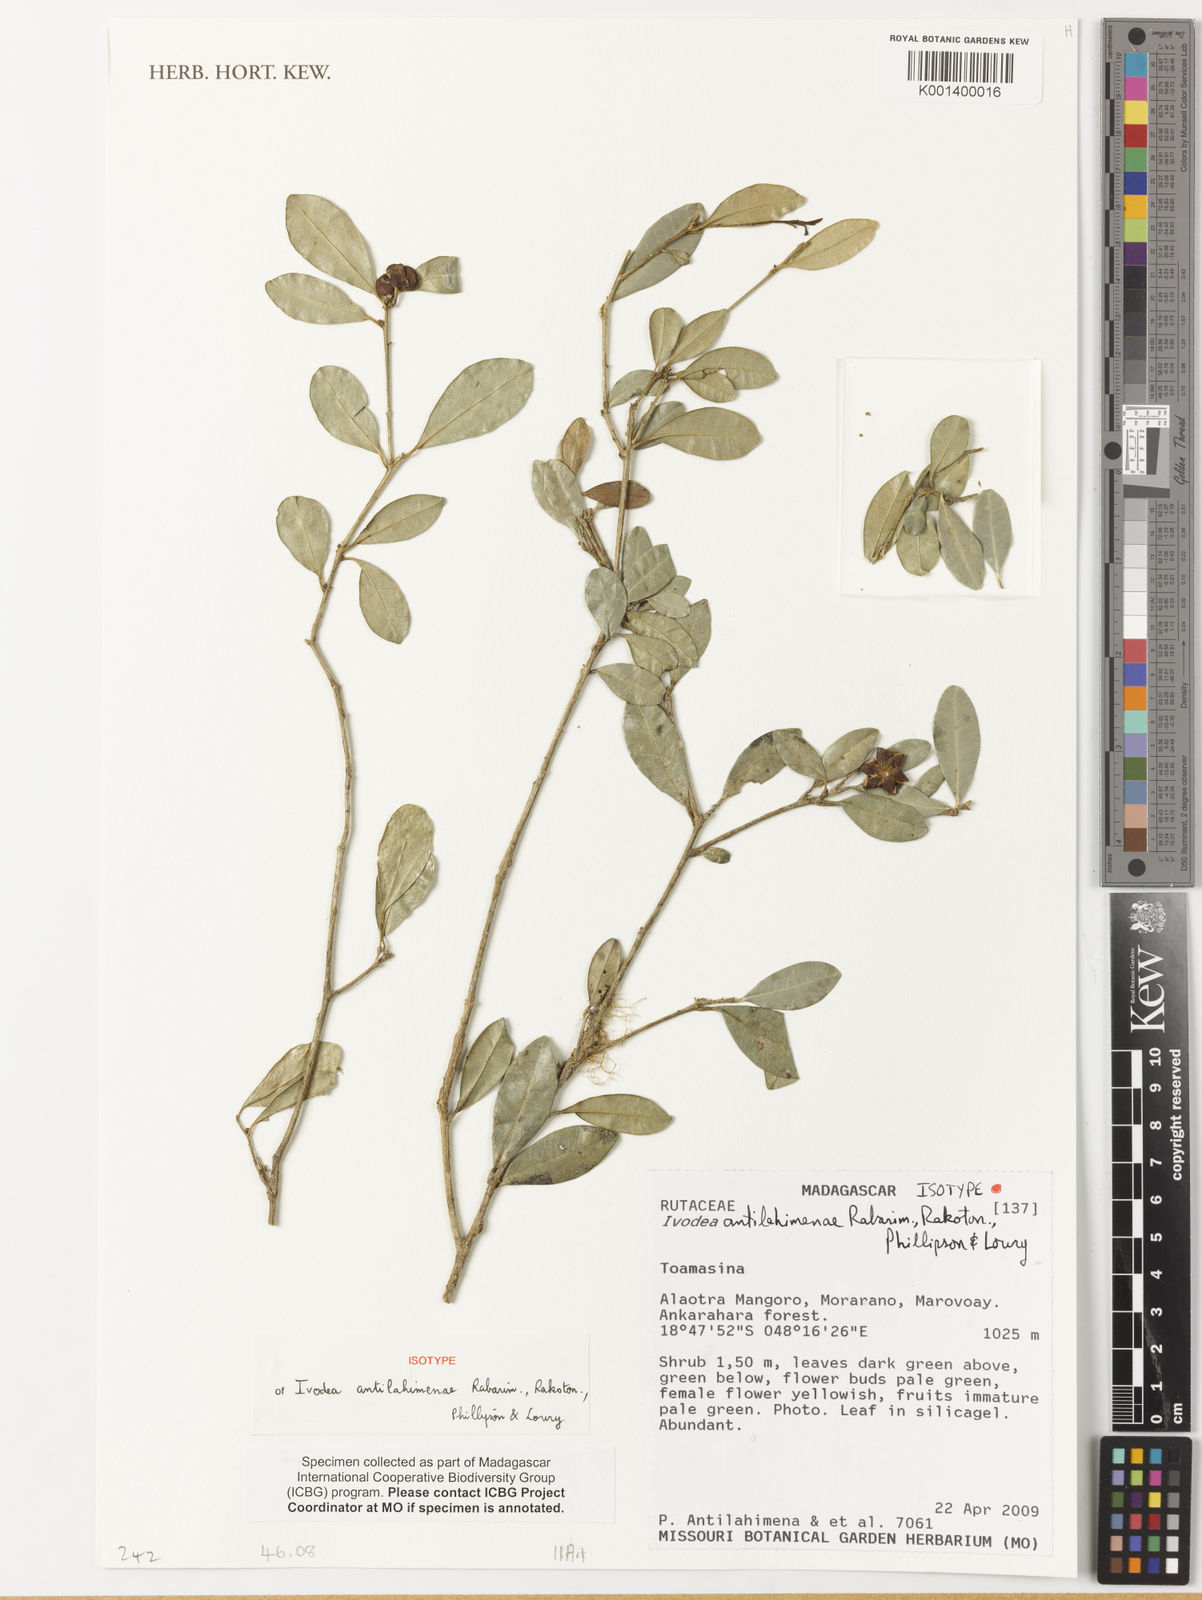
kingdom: Plantae
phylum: Tracheophyta
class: Magnoliopsida
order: Sapindales
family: Rutaceae
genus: Ivodea
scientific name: Ivodea antilahimenae
